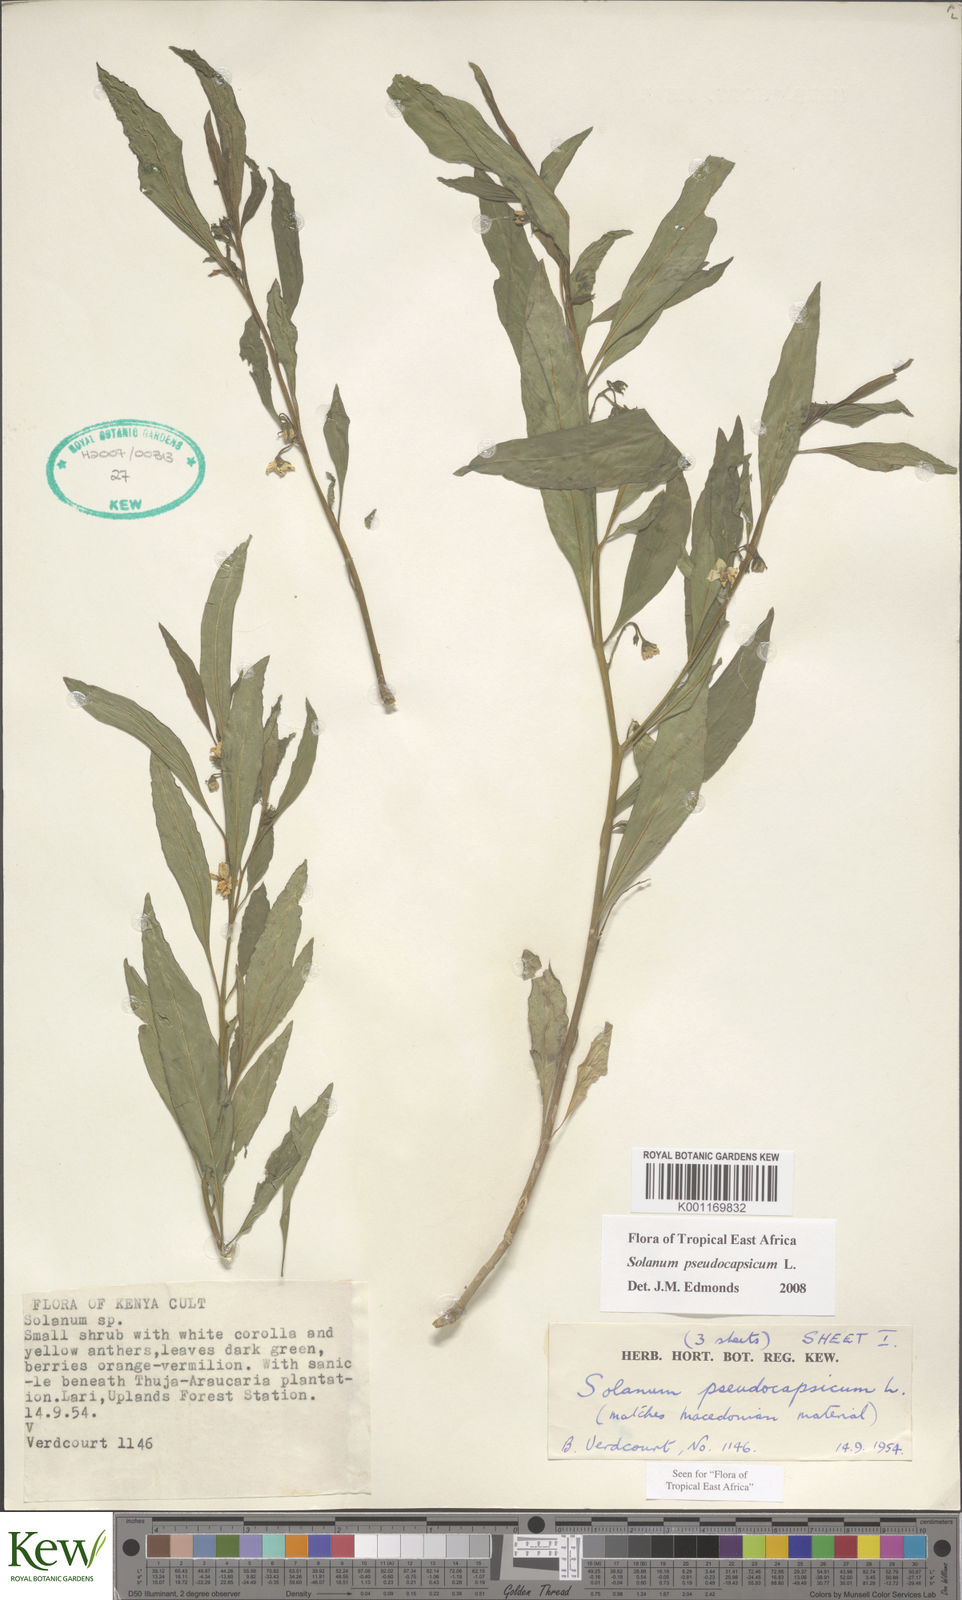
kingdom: Plantae
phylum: Tracheophyta
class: Magnoliopsida
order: Solanales
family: Solanaceae
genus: Solanum
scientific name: Solanum
